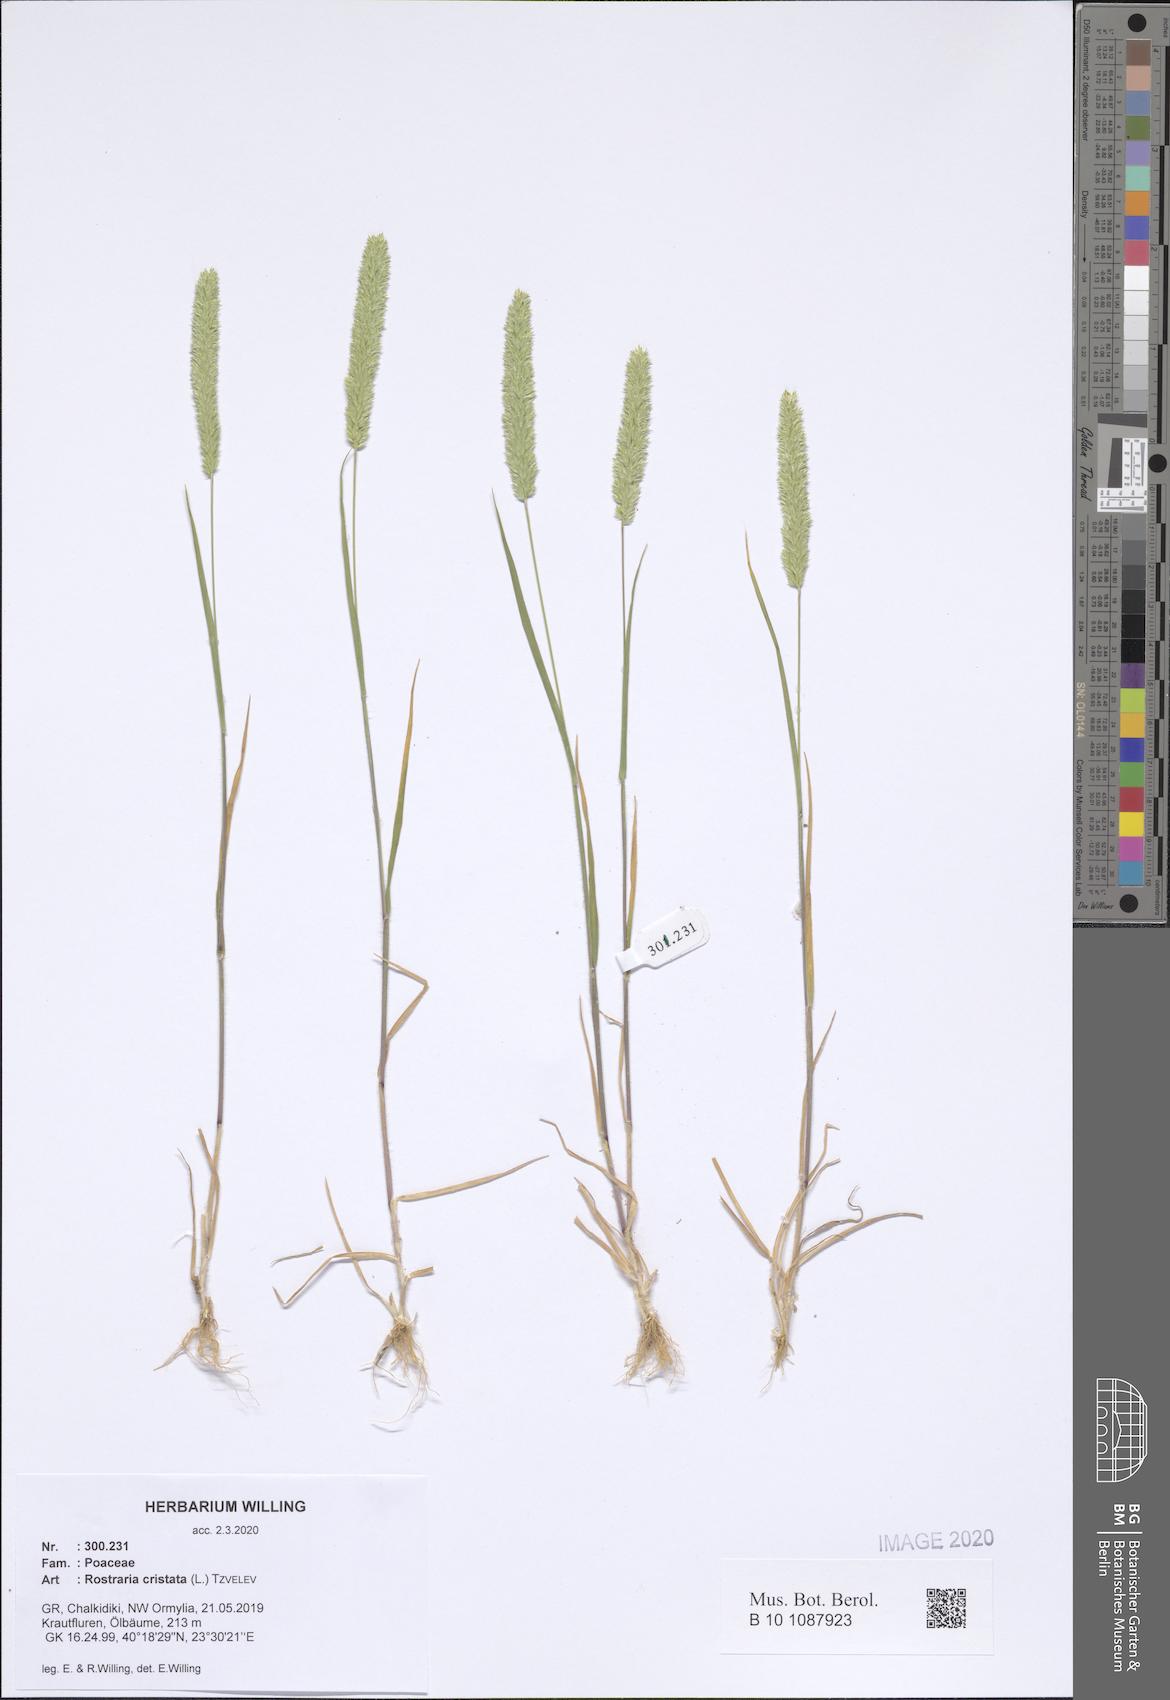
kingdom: Plantae
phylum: Tracheophyta
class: Liliopsida
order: Poales
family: Poaceae
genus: Rostraria
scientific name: Rostraria cristata
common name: Mediterranean hair-grass
